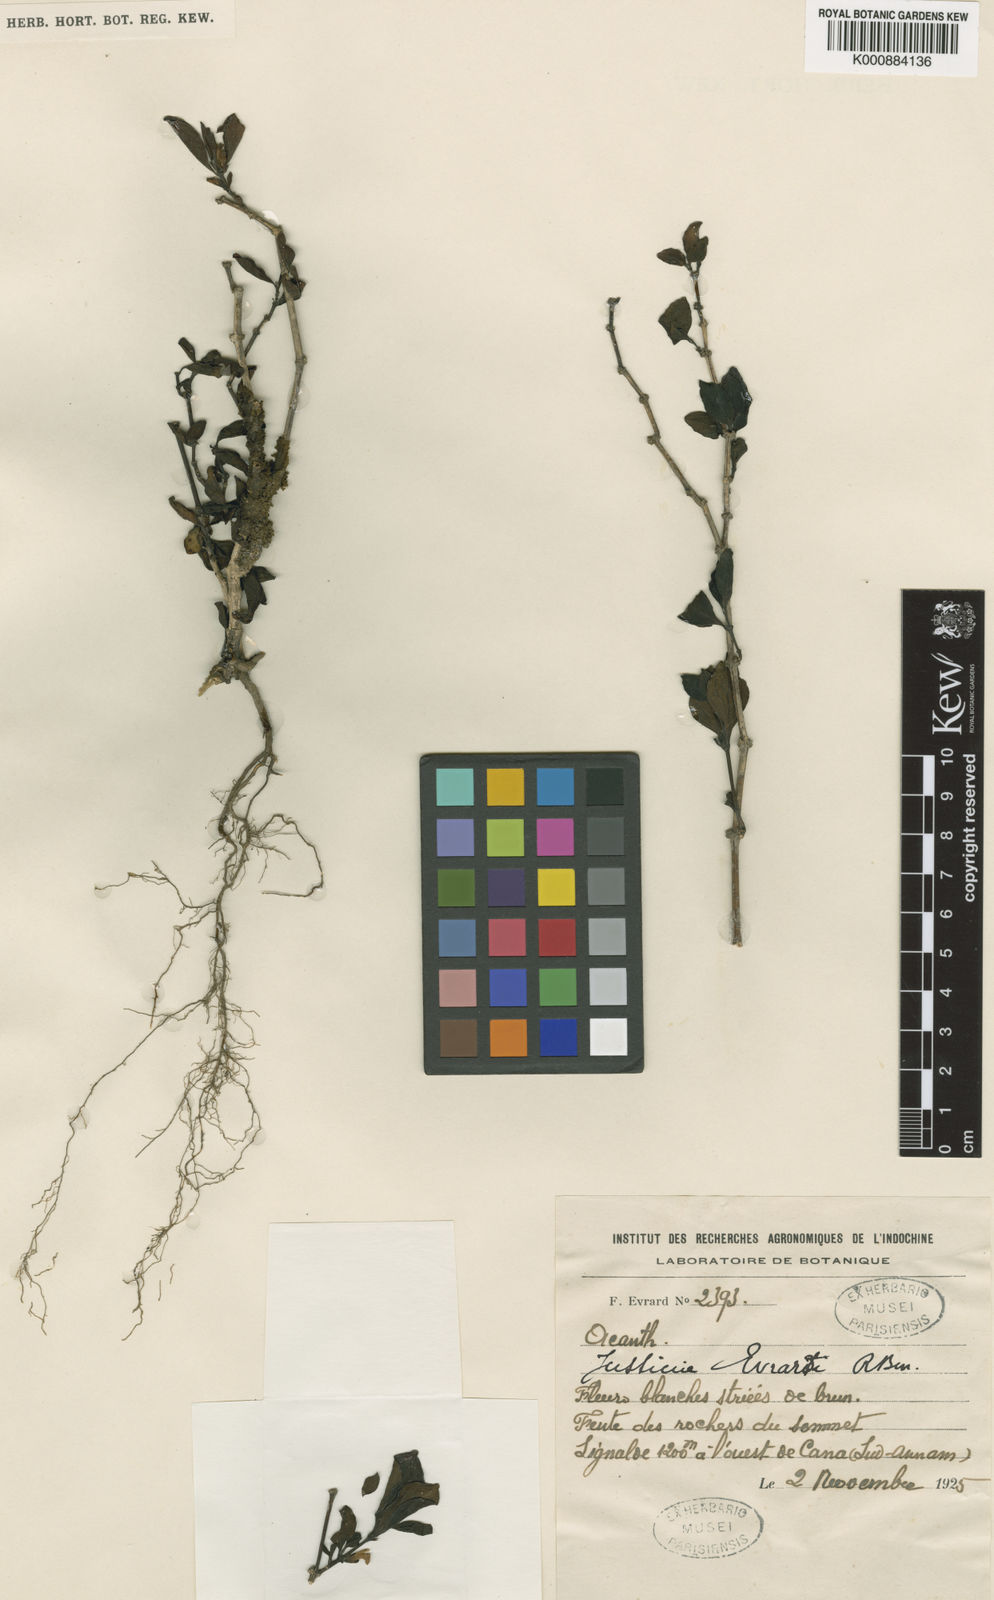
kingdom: Plantae
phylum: Tracheophyta
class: Magnoliopsida
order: Lamiales
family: Acanthaceae
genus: Justicia
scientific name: Justicia quadrifaria
